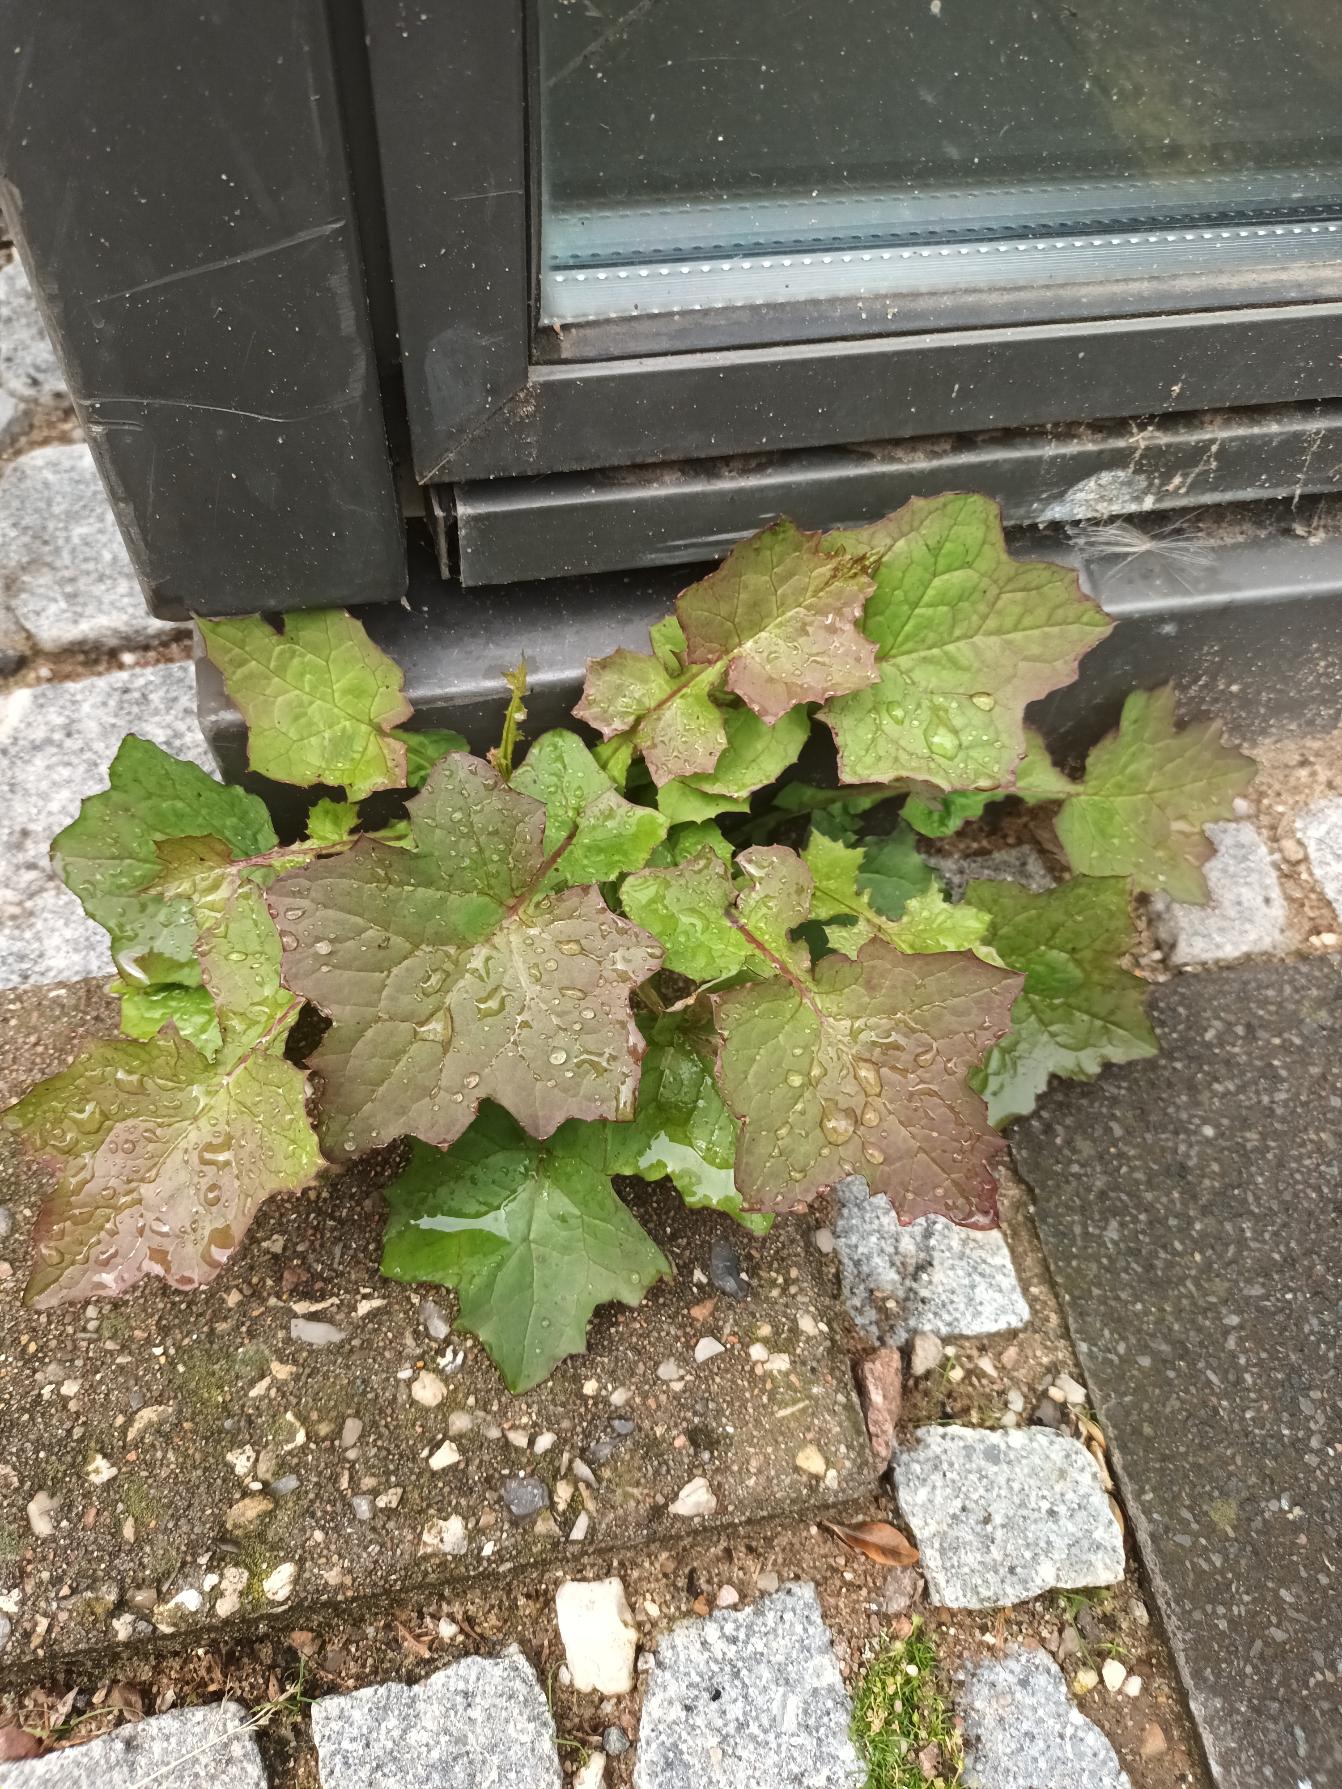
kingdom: Plantae
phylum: Tracheophyta
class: Magnoliopsida
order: Asterales
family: Asteraceae
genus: Mycelis
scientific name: Mycelis muralis
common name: Skov-salat
